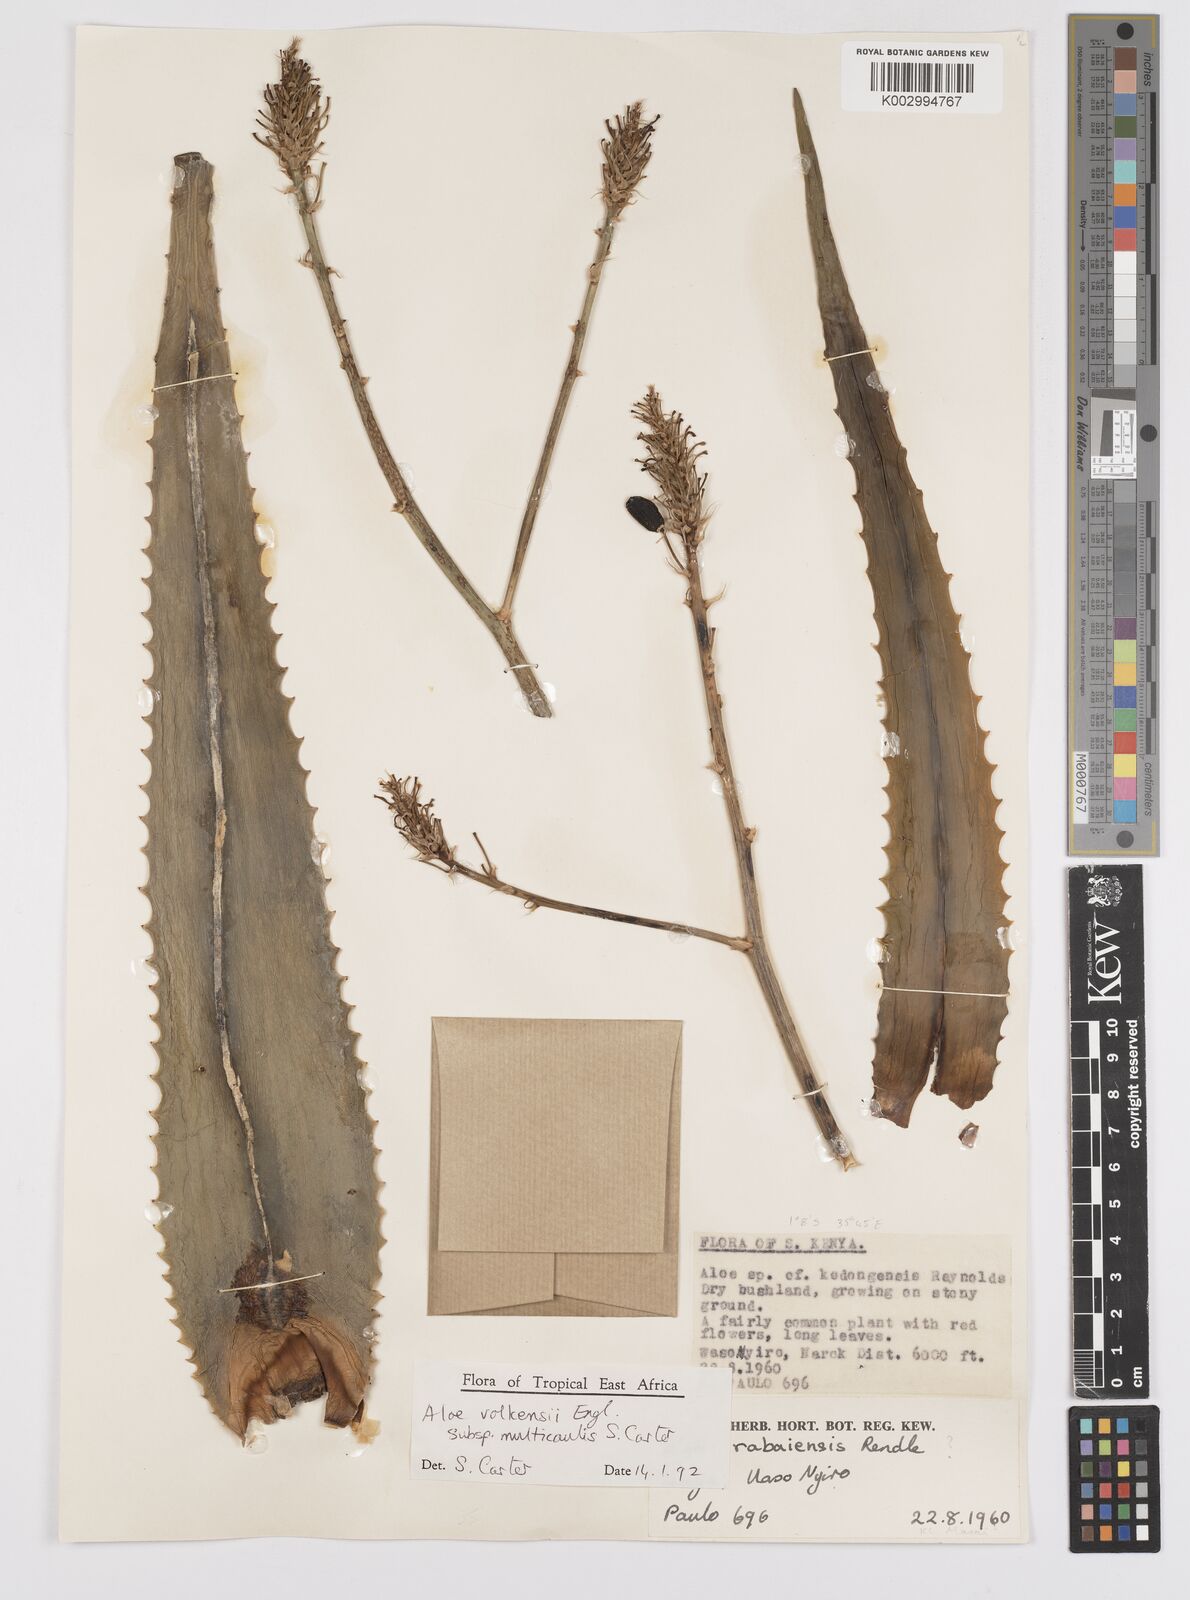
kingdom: Plantae
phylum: Tracheophyta
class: Liliopsida
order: Asparagales
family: Asphodelaceae
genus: Aloe
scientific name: Aloe volkensii
